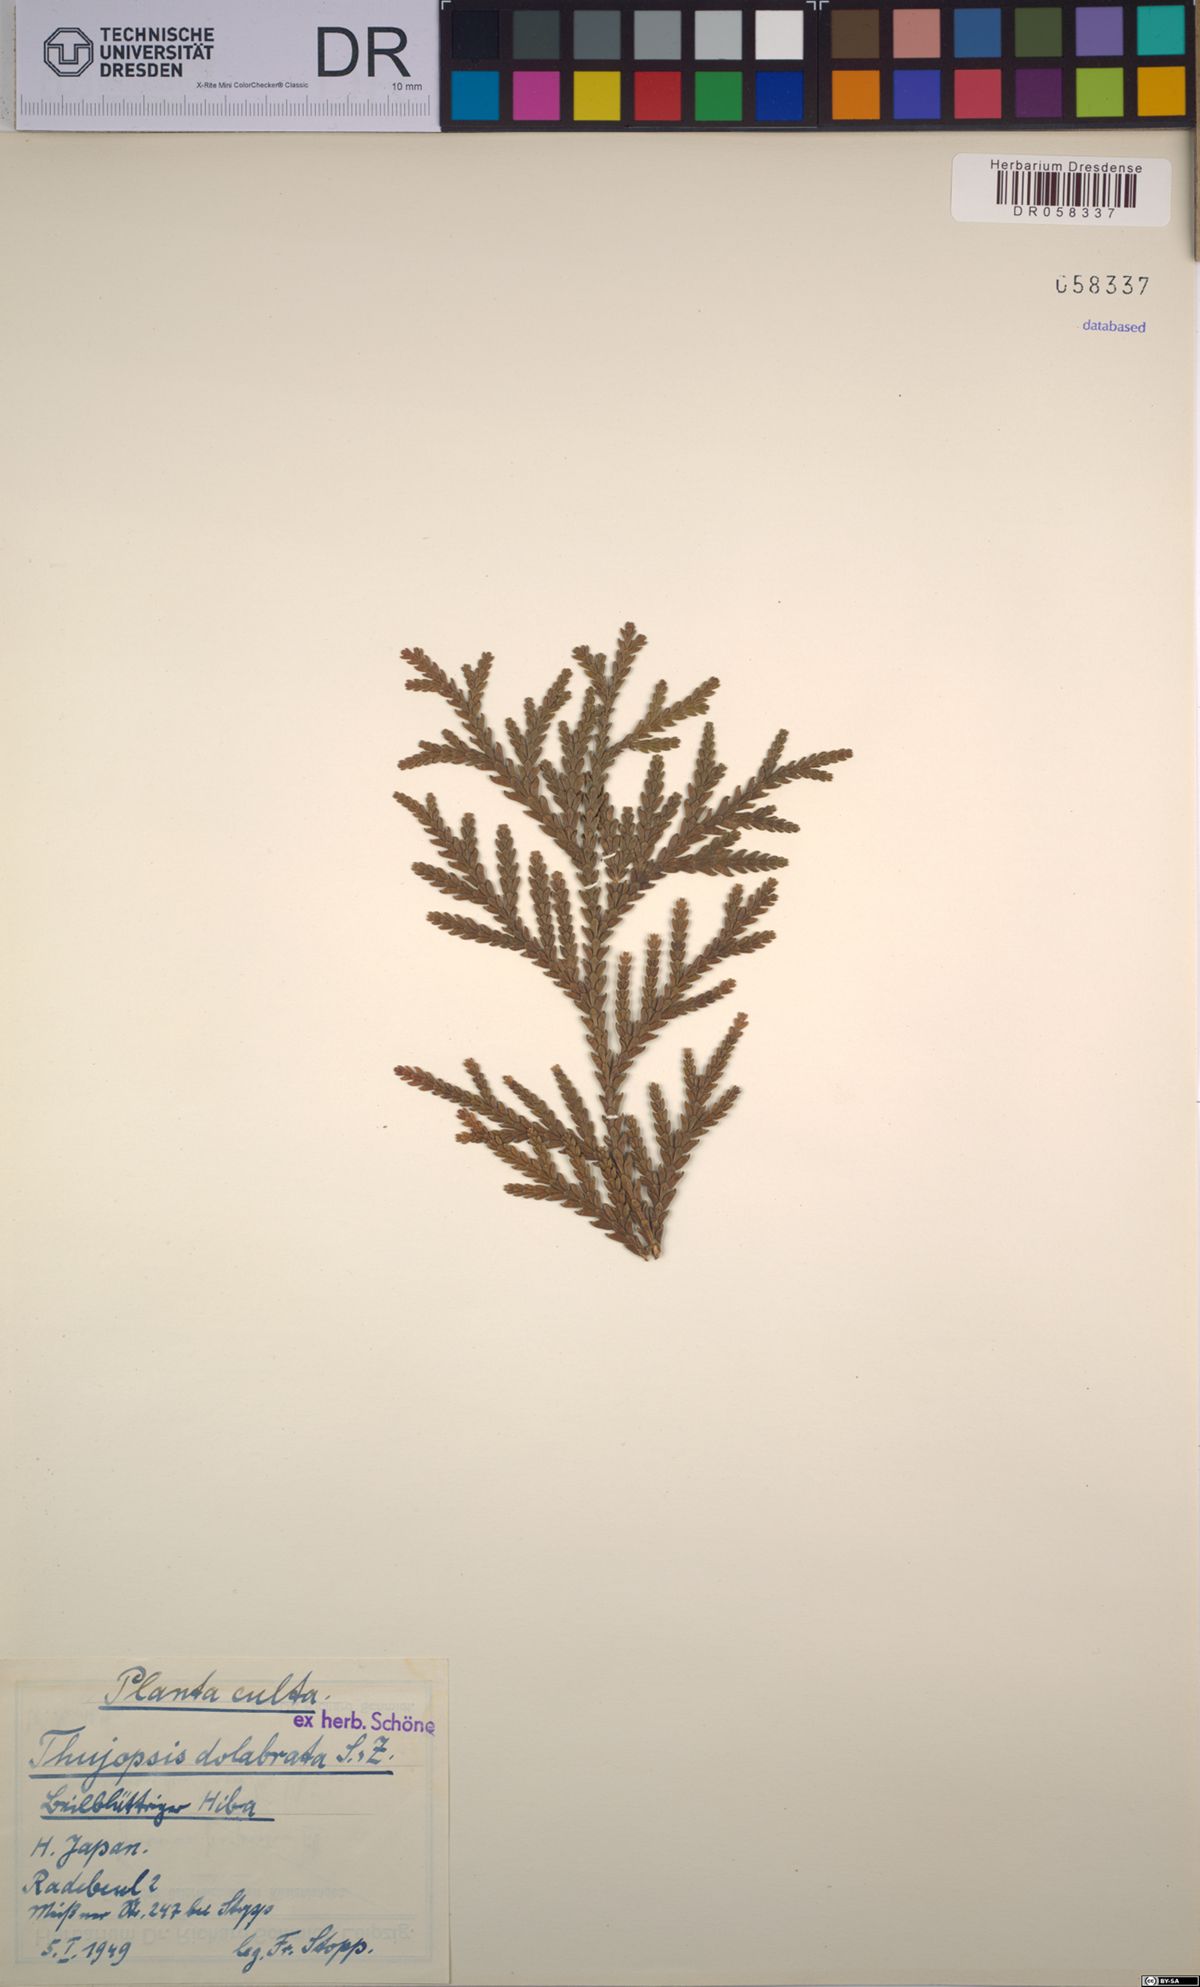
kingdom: Plantae
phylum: Tracheophyta
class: Pinopsida
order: Pinales
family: Cupressaceae
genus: Thujopsis
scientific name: Thujopsis dolabrata
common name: Hiba
